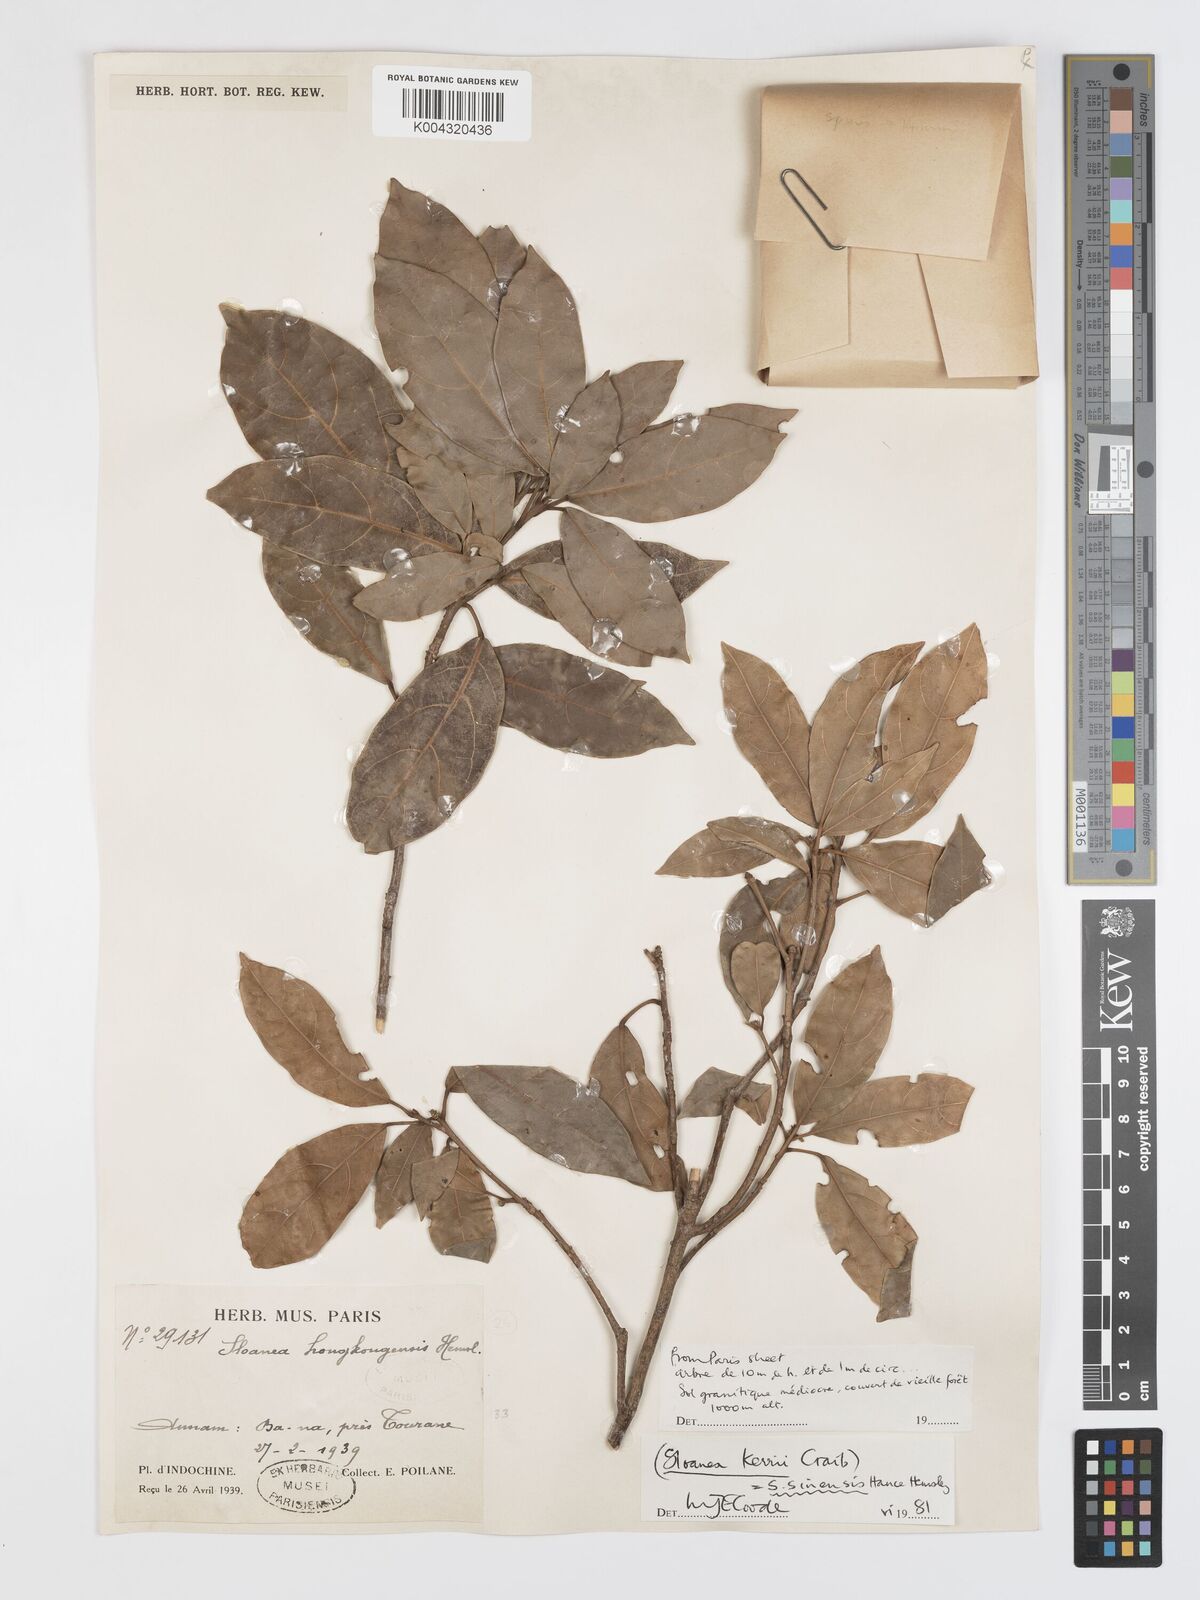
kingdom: Plantae
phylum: Tracheophyta
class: Magnoliopsida
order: Oxalidales
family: Elaeocarpaceae
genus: Sloanea
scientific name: Sloanea sinensis
